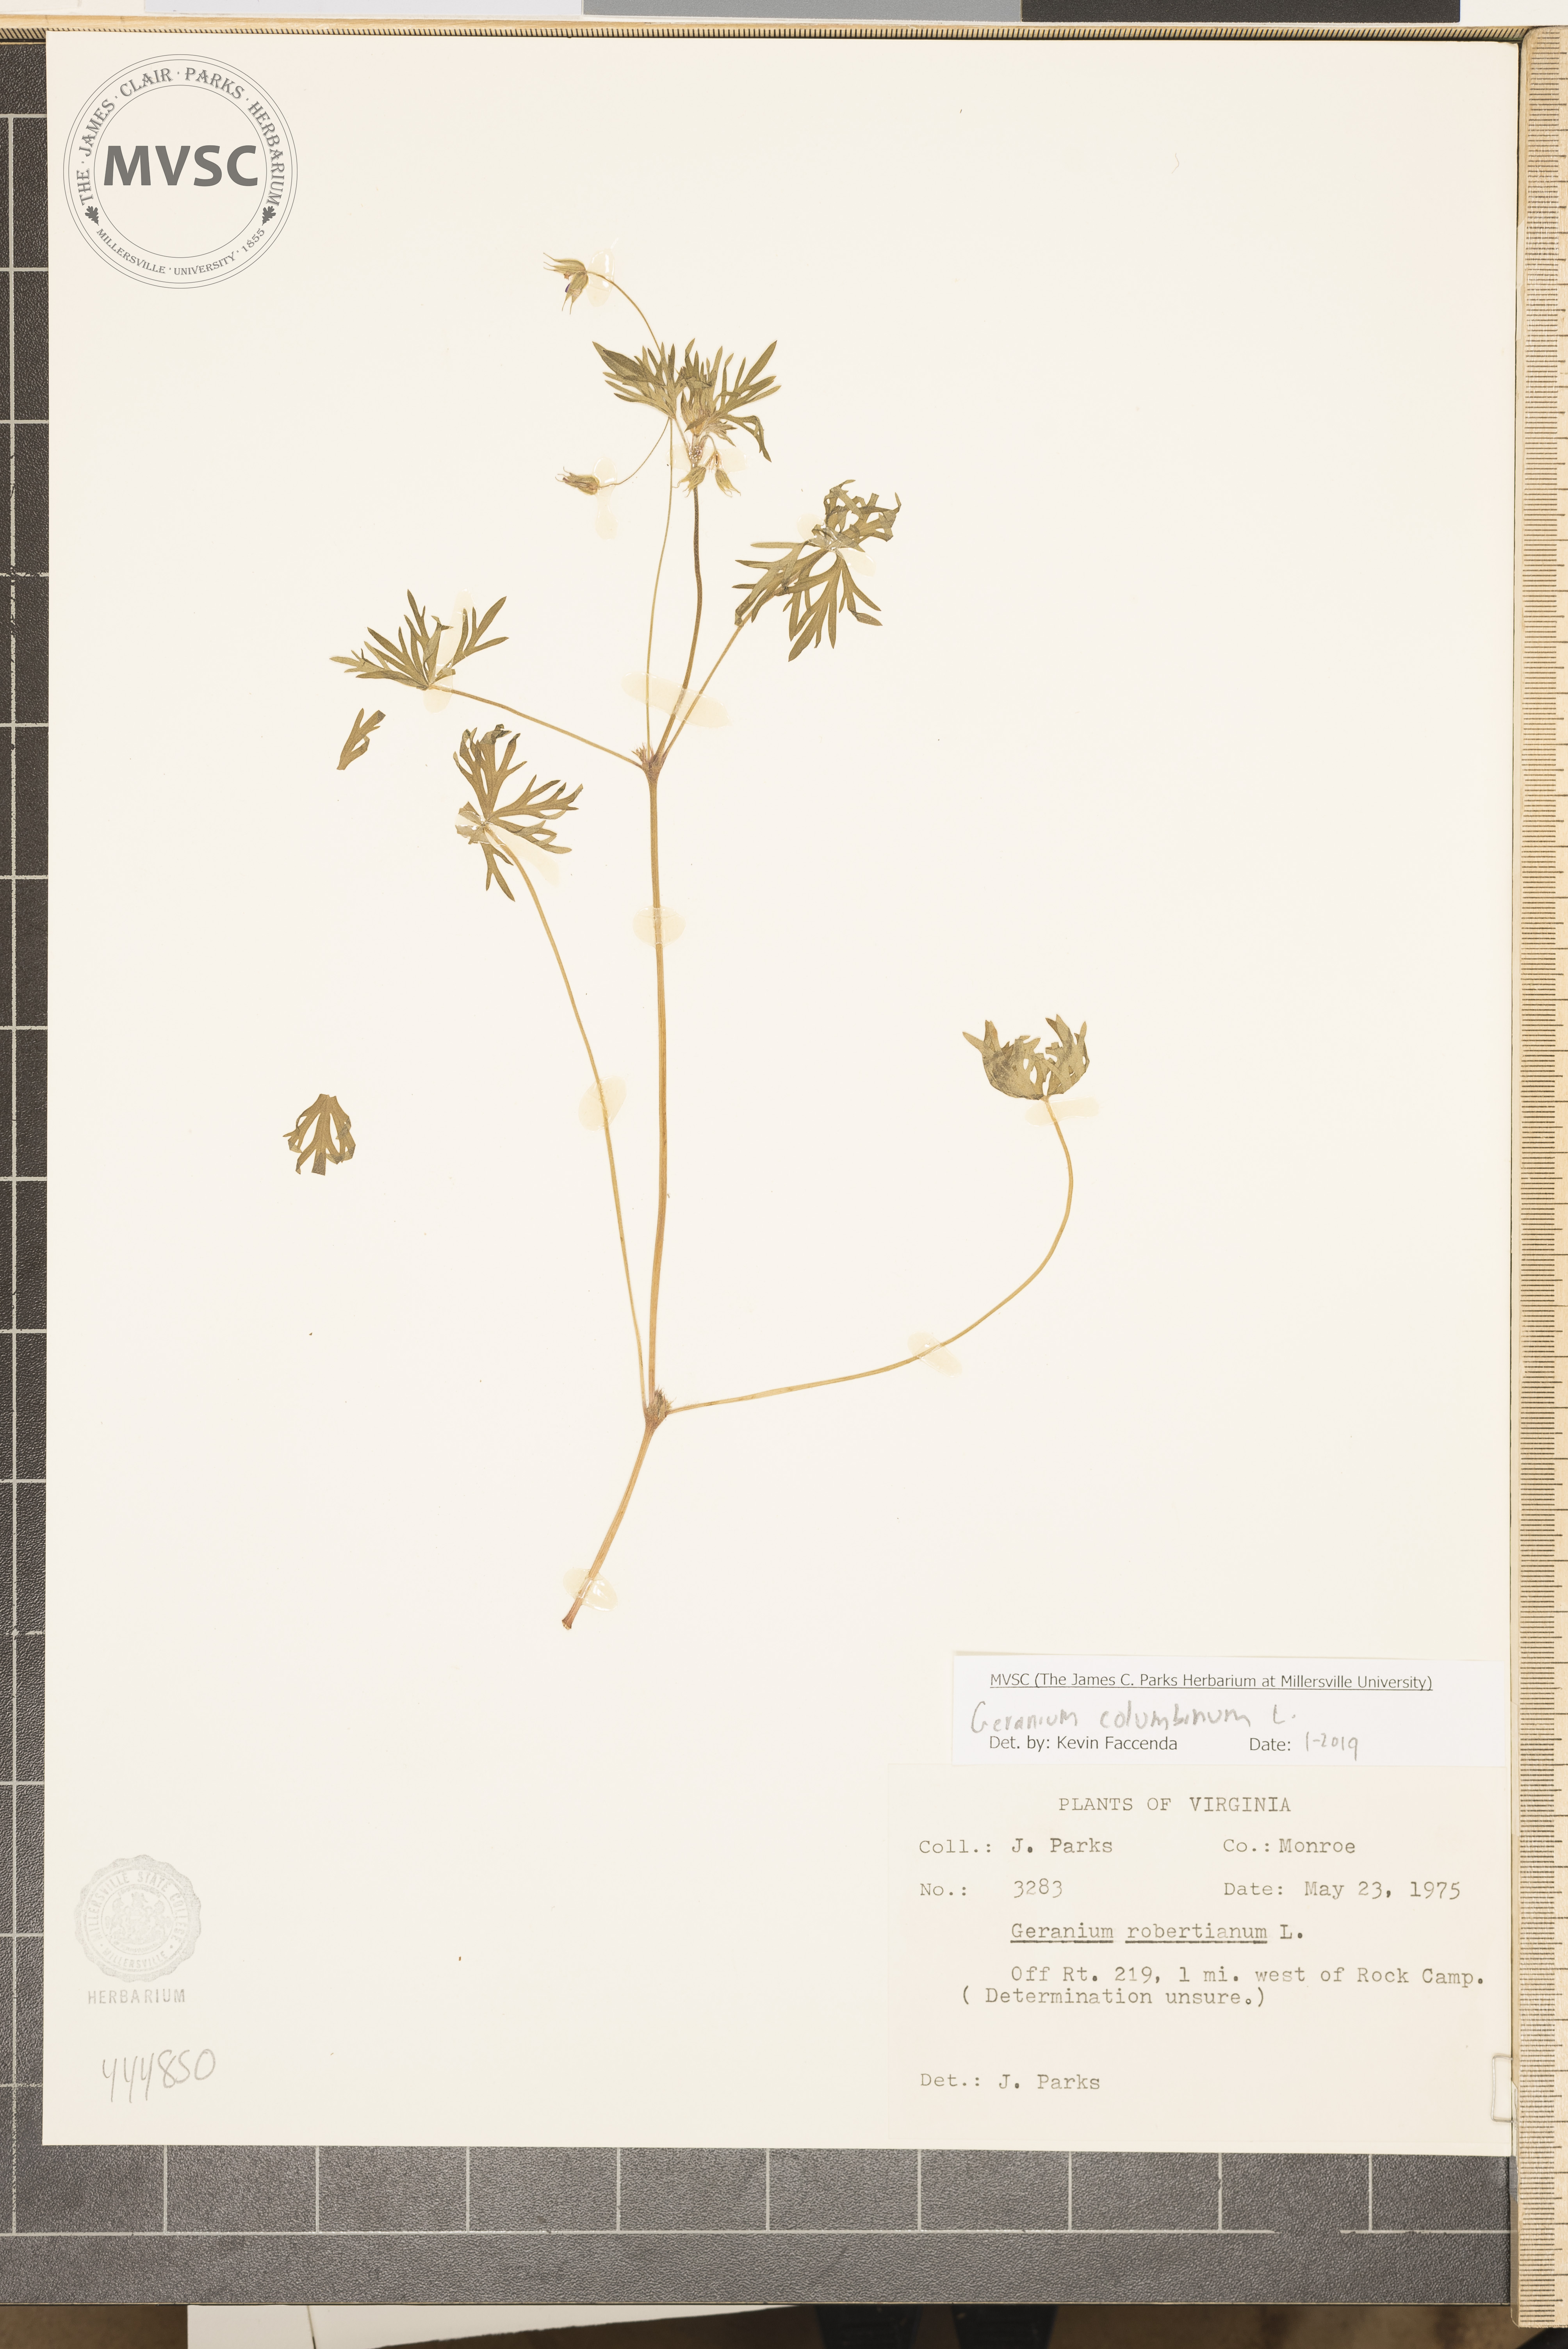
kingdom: Plantae
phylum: Tracheophyta
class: Magnoliopsida
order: Geraniales
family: Geraniaceae
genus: Geranium
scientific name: Geranium columbinum
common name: Long-stalked crane's-bill
